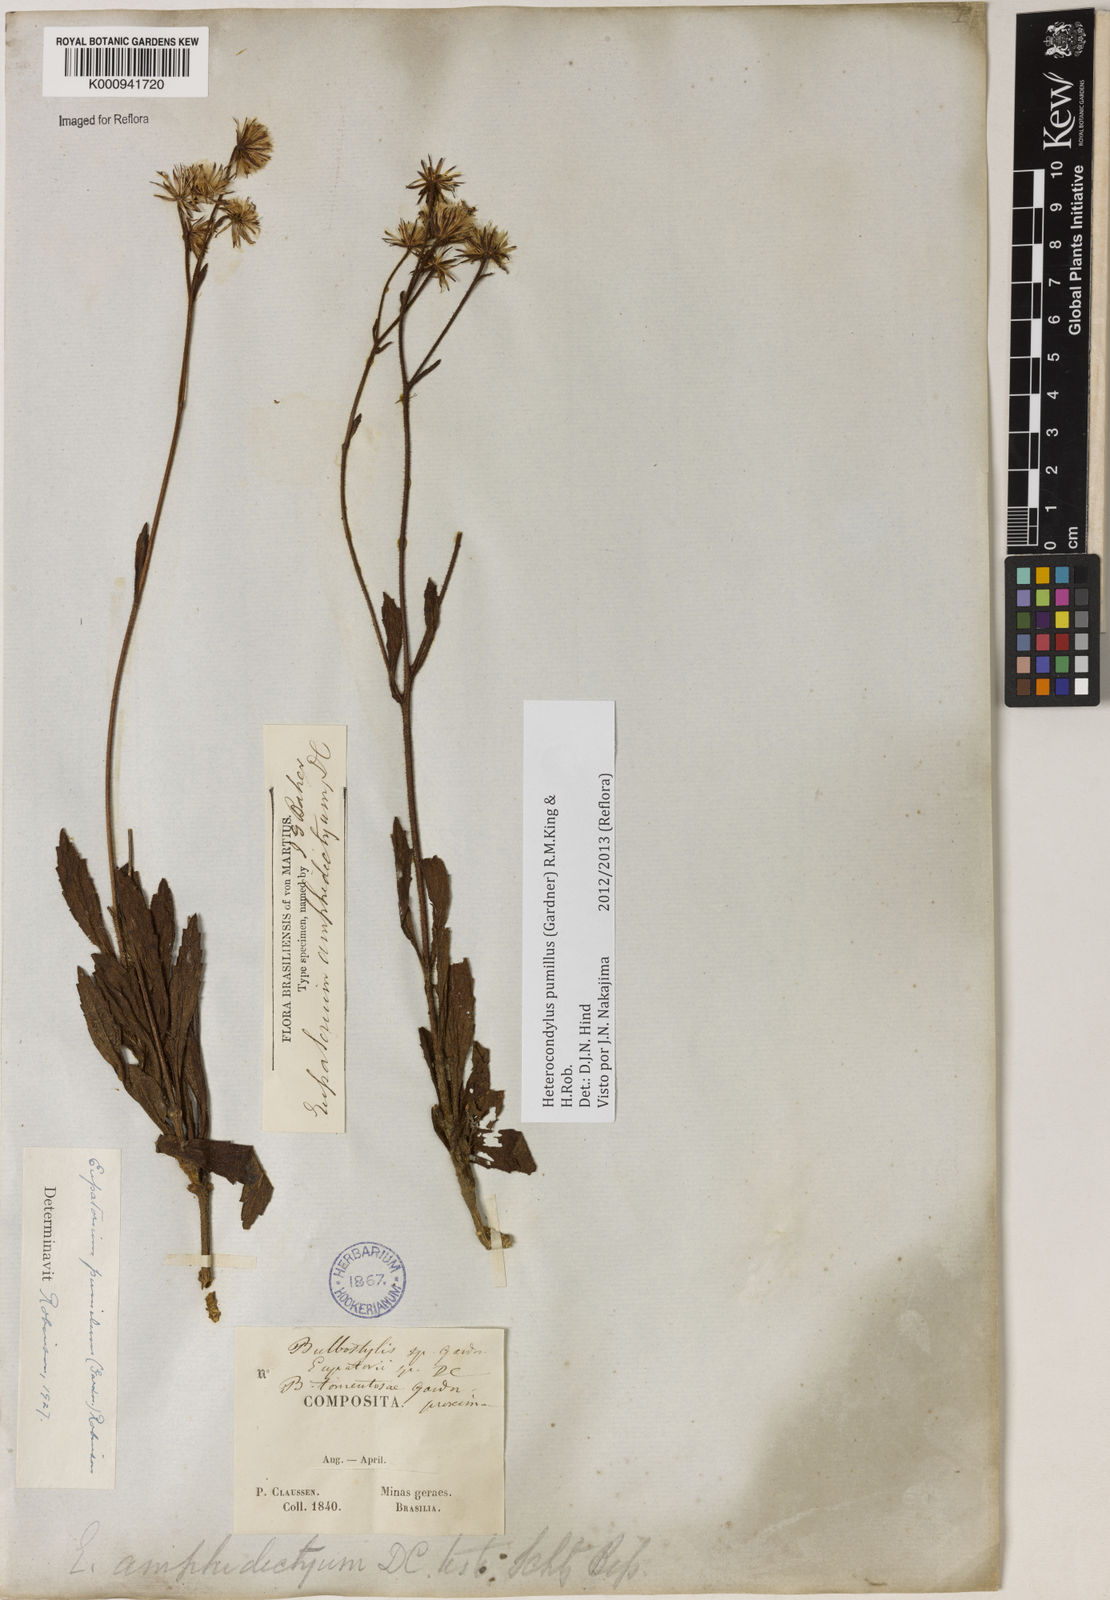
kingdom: Plantae
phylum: Tracheophyta
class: Magnoliopsida
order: Asterales
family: Asteraceae
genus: Heterocondylus
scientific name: Heterocondylus pumilus
